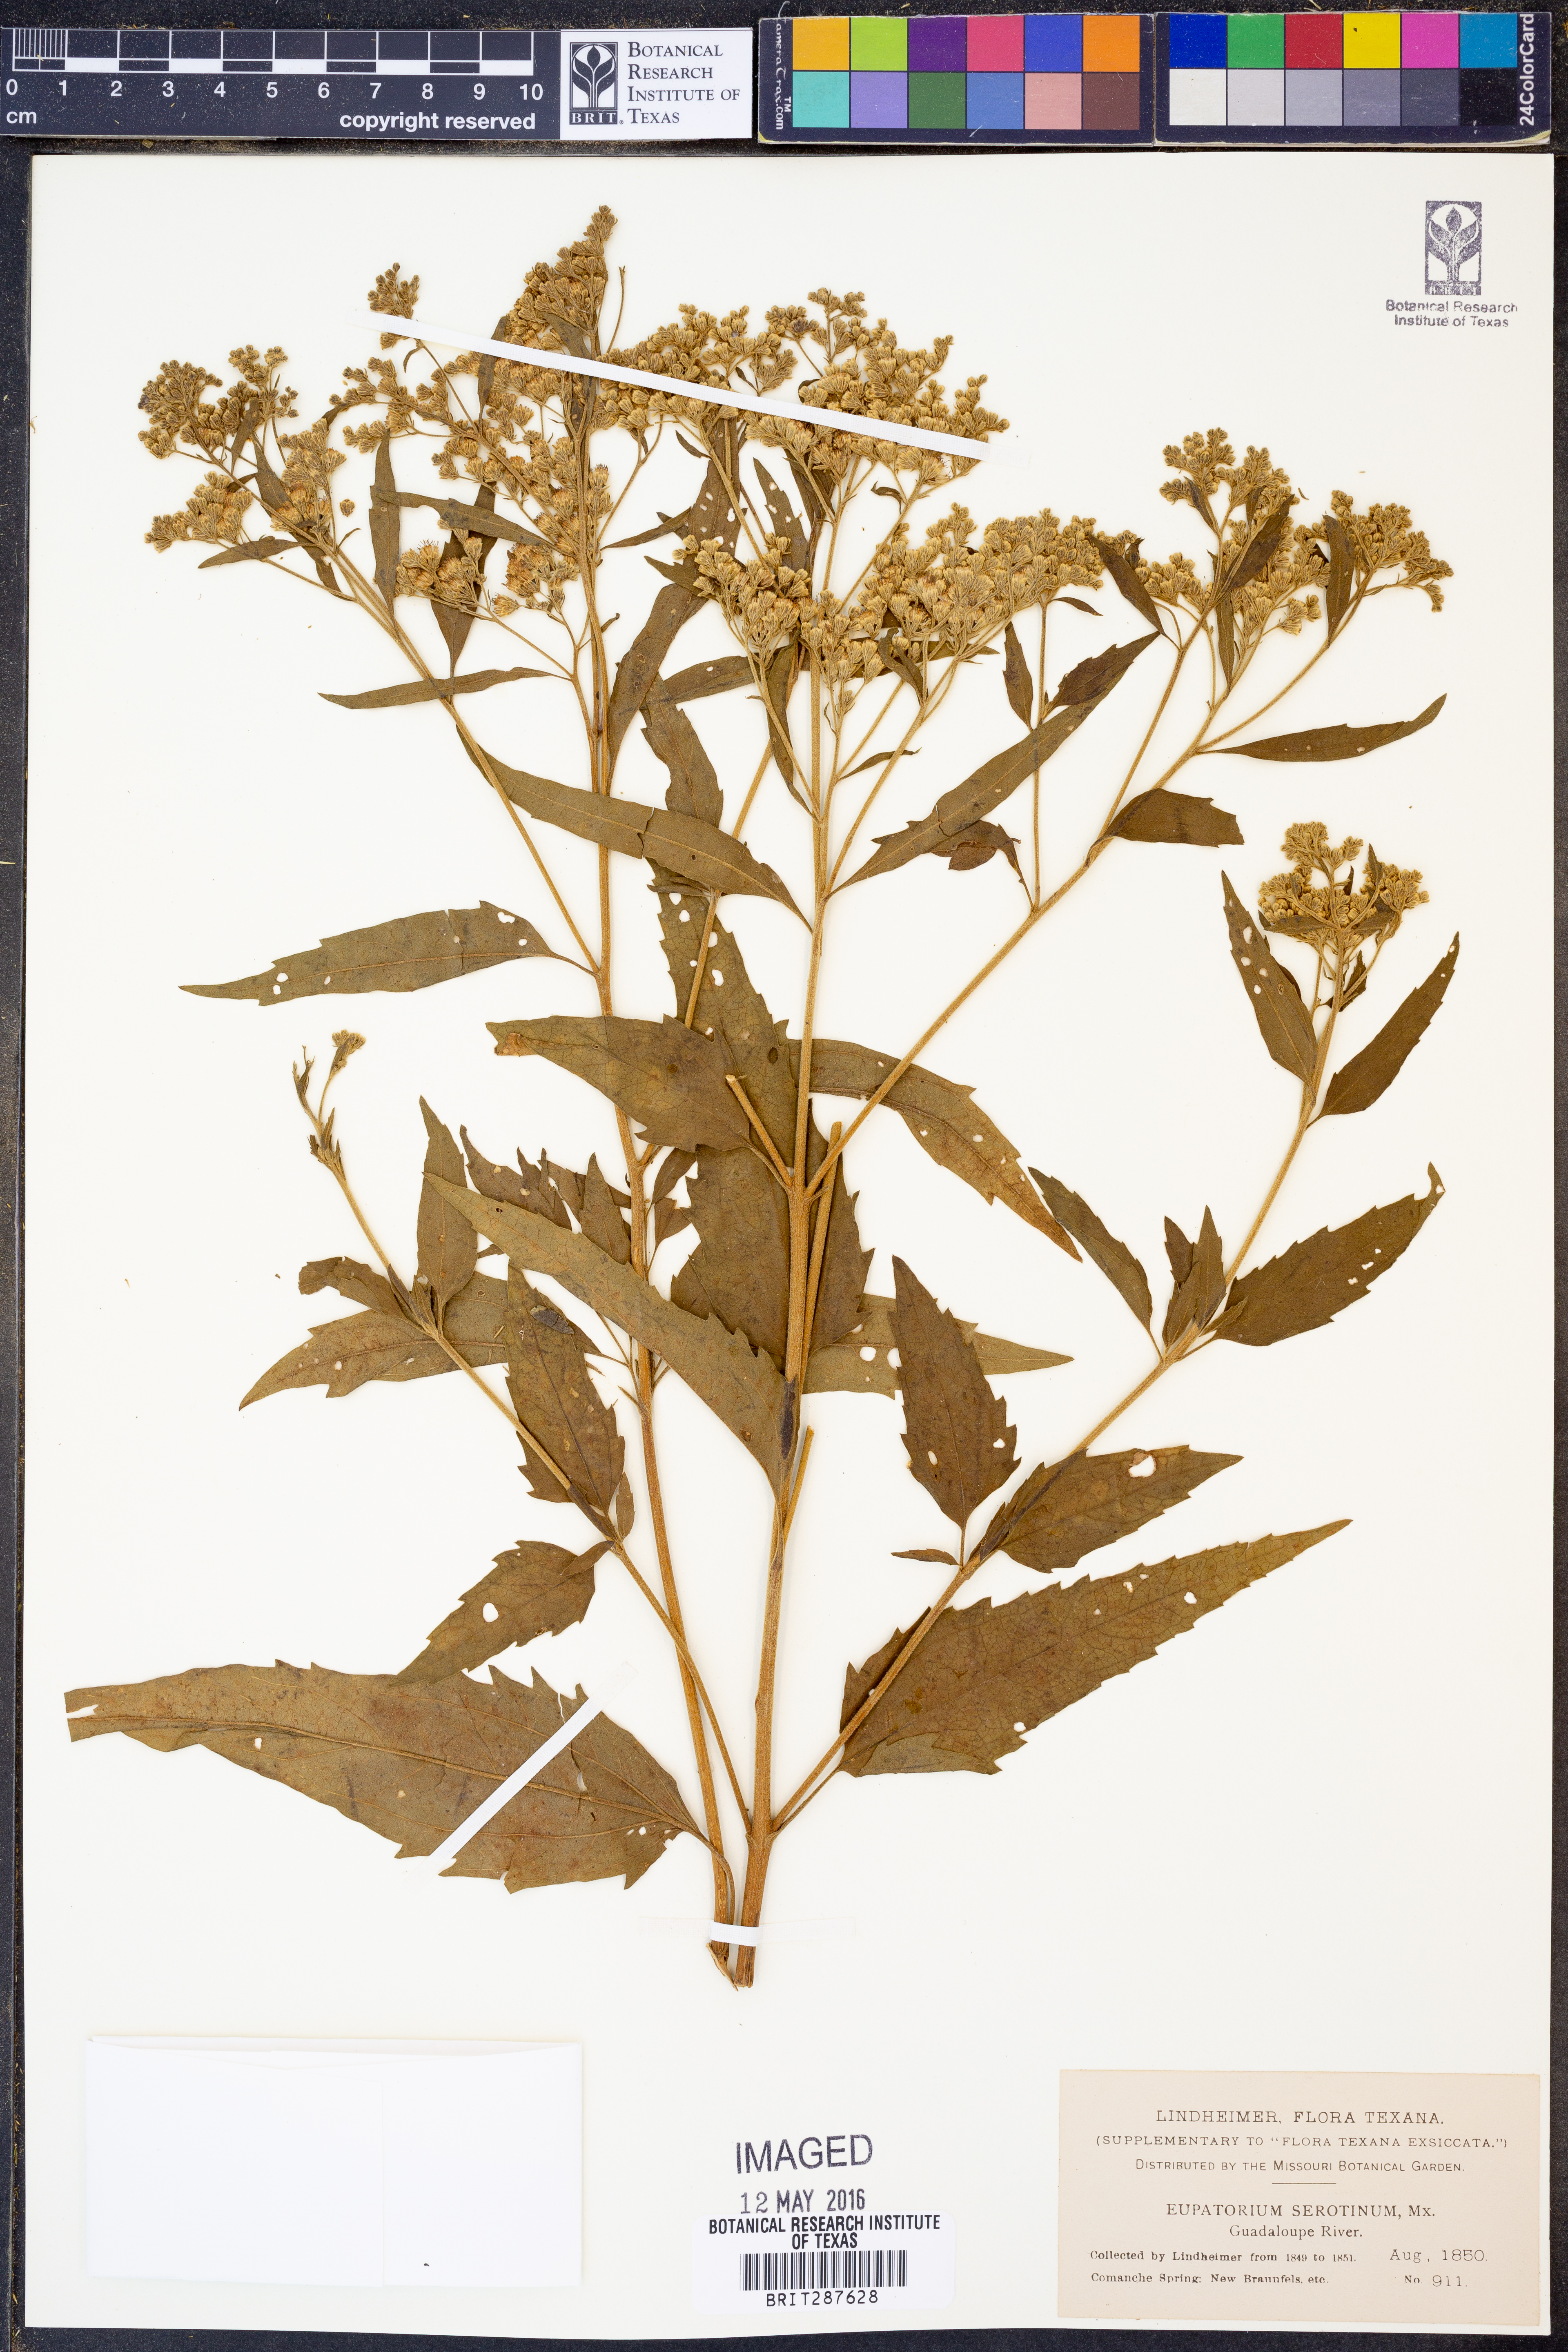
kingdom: Plantae
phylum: Tracheophyta
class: Magnoliopsida
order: Asterales
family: Asteraceae
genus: Eupatorium
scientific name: Eupatorium serotinum
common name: Late boneset
